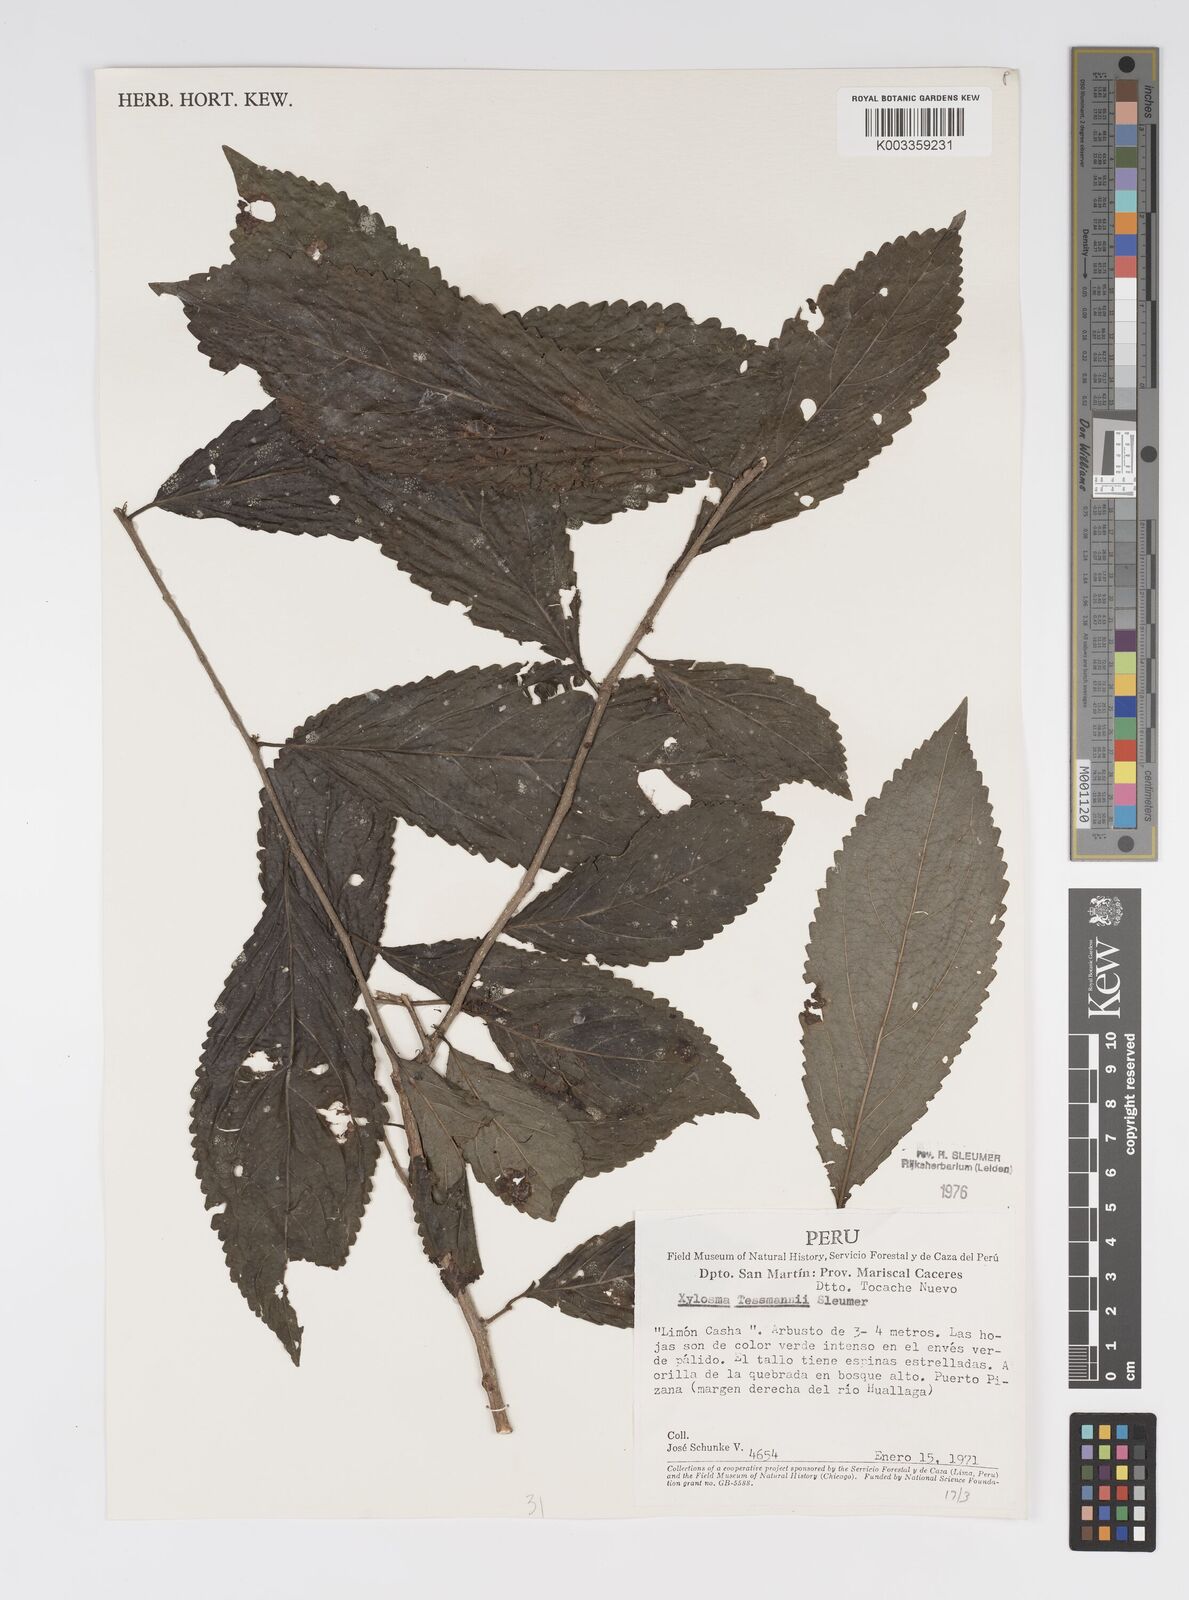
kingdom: Plantae
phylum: Tracheophyta
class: Magnoliopsida
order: Malpighiales
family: Salicaceae
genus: Xylosma
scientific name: Xylosma tessmannii
